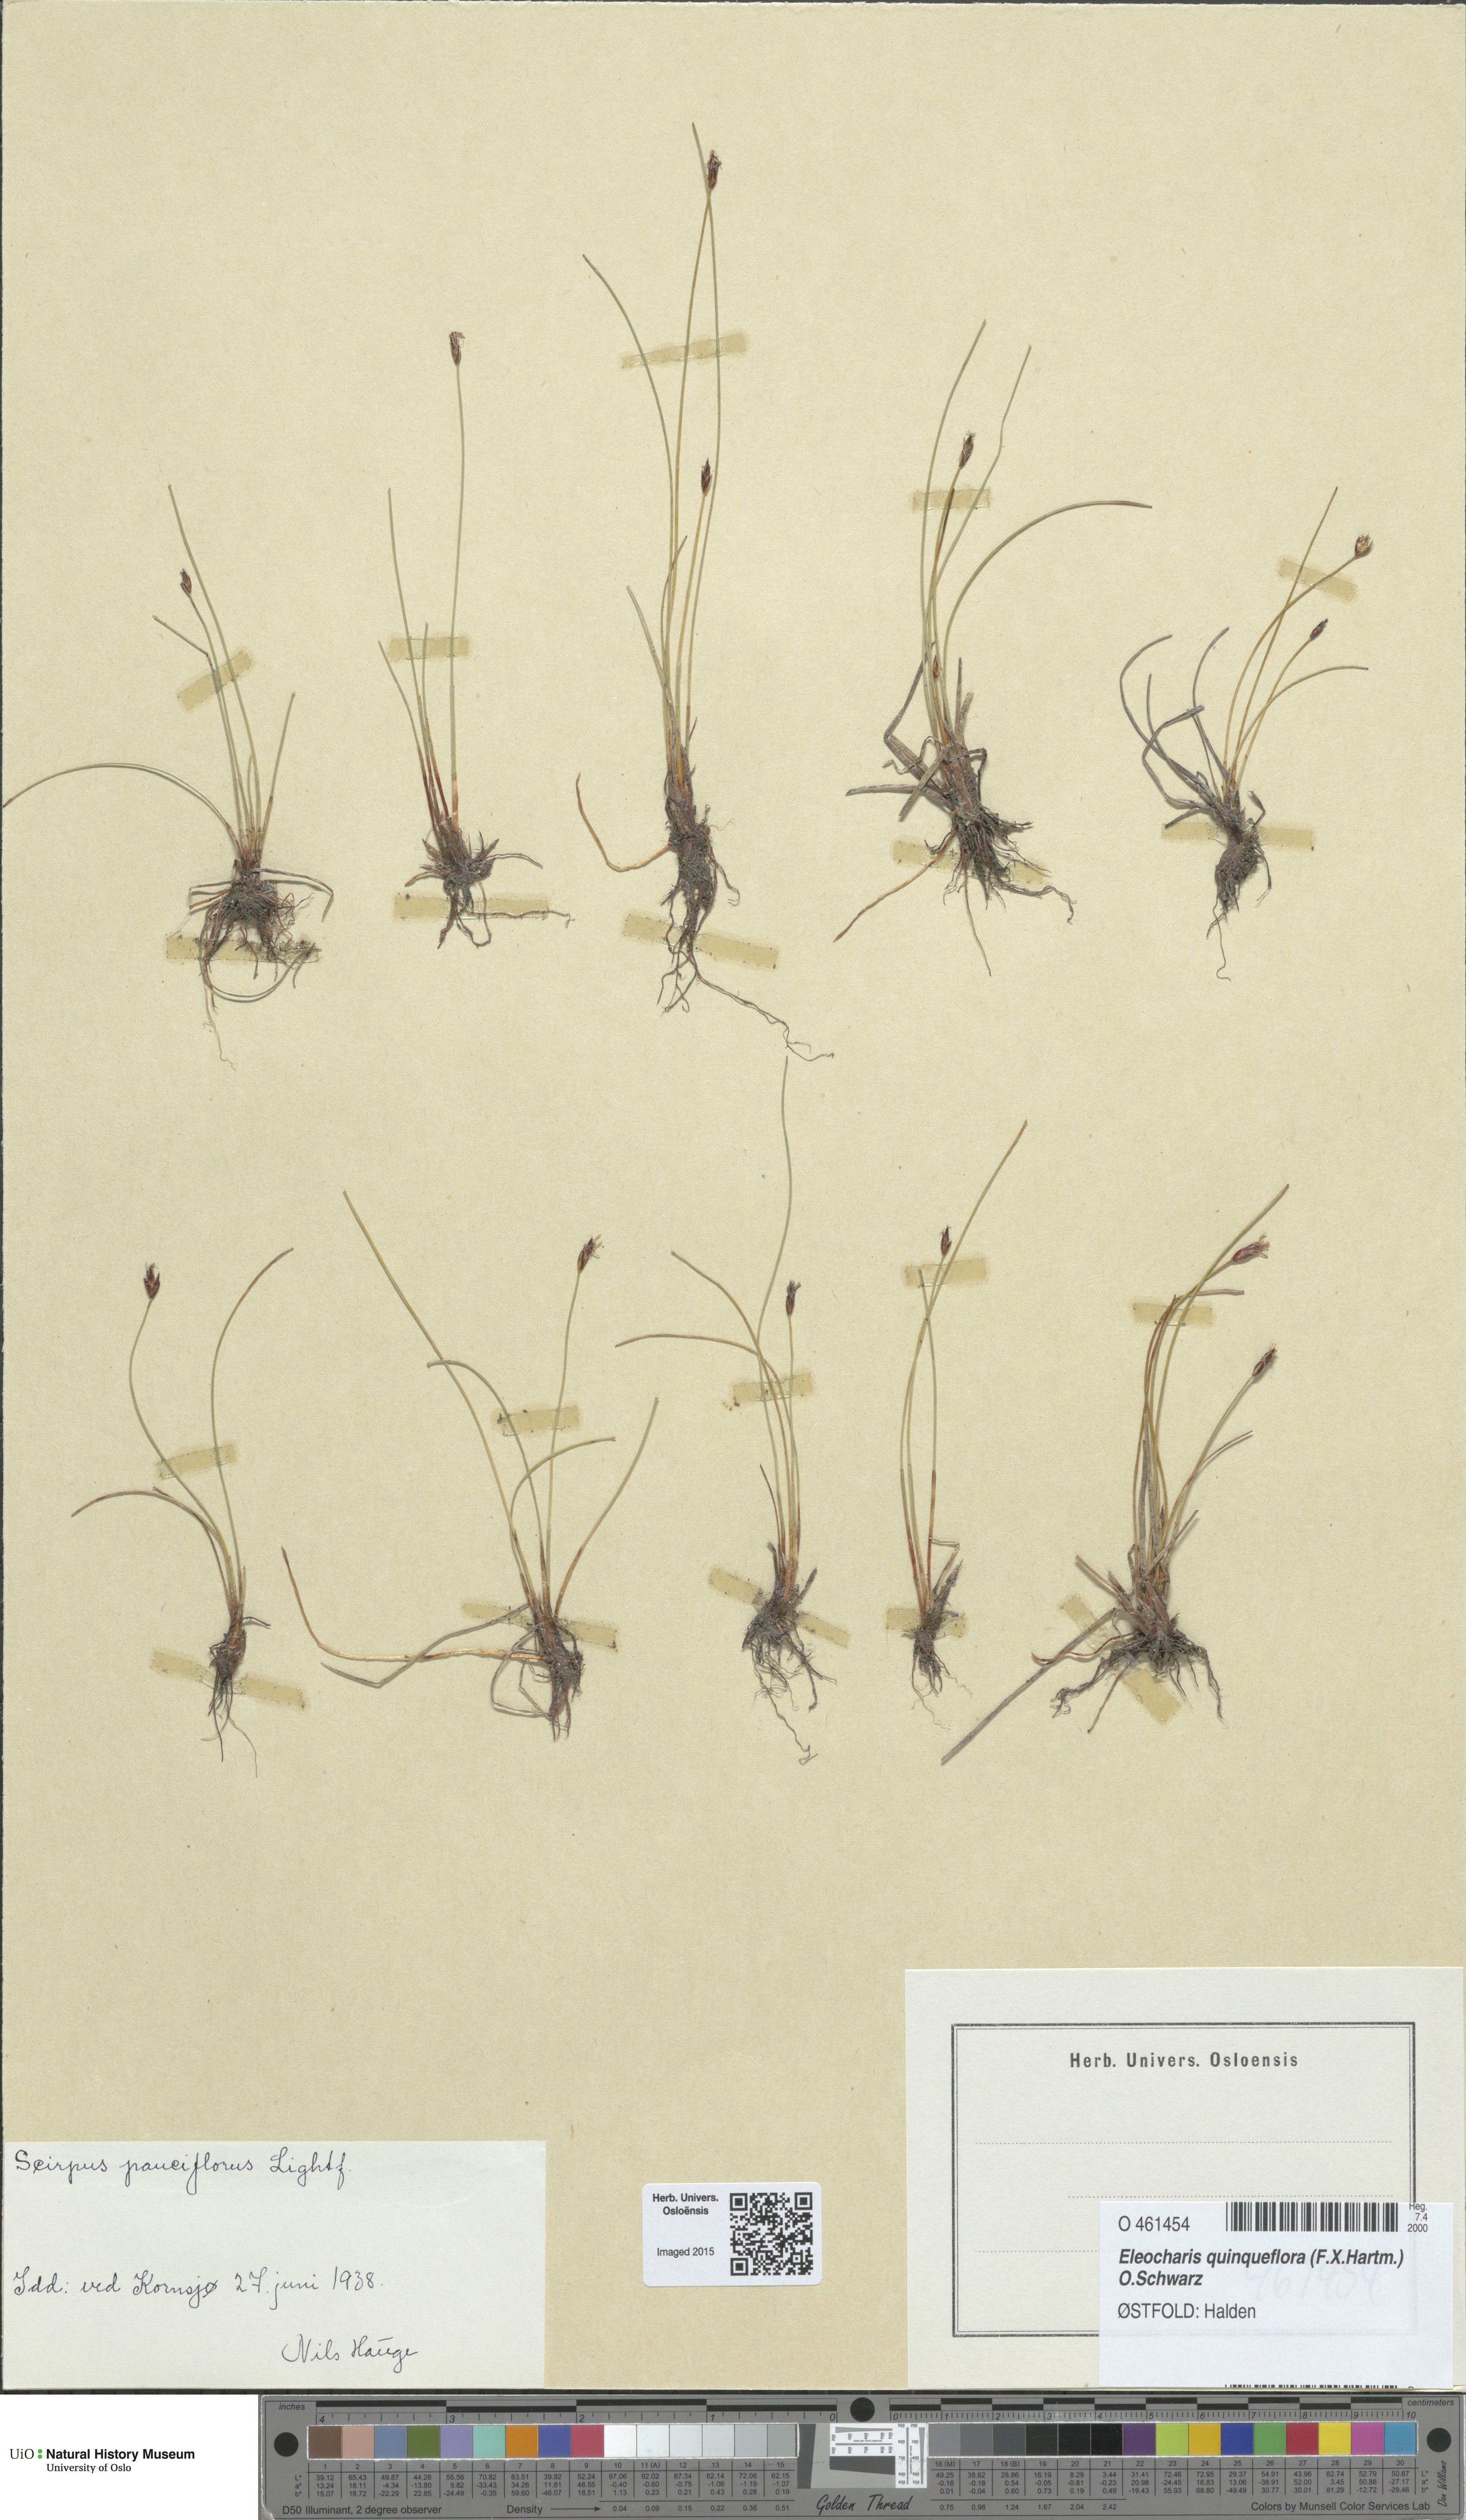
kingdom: Plantae
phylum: Tracheophyta
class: Liliopsida
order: Poales
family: Cyperaceae
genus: Eleocharis
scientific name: Eleocharis quinqueflora
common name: Few-flowered spike-rush
